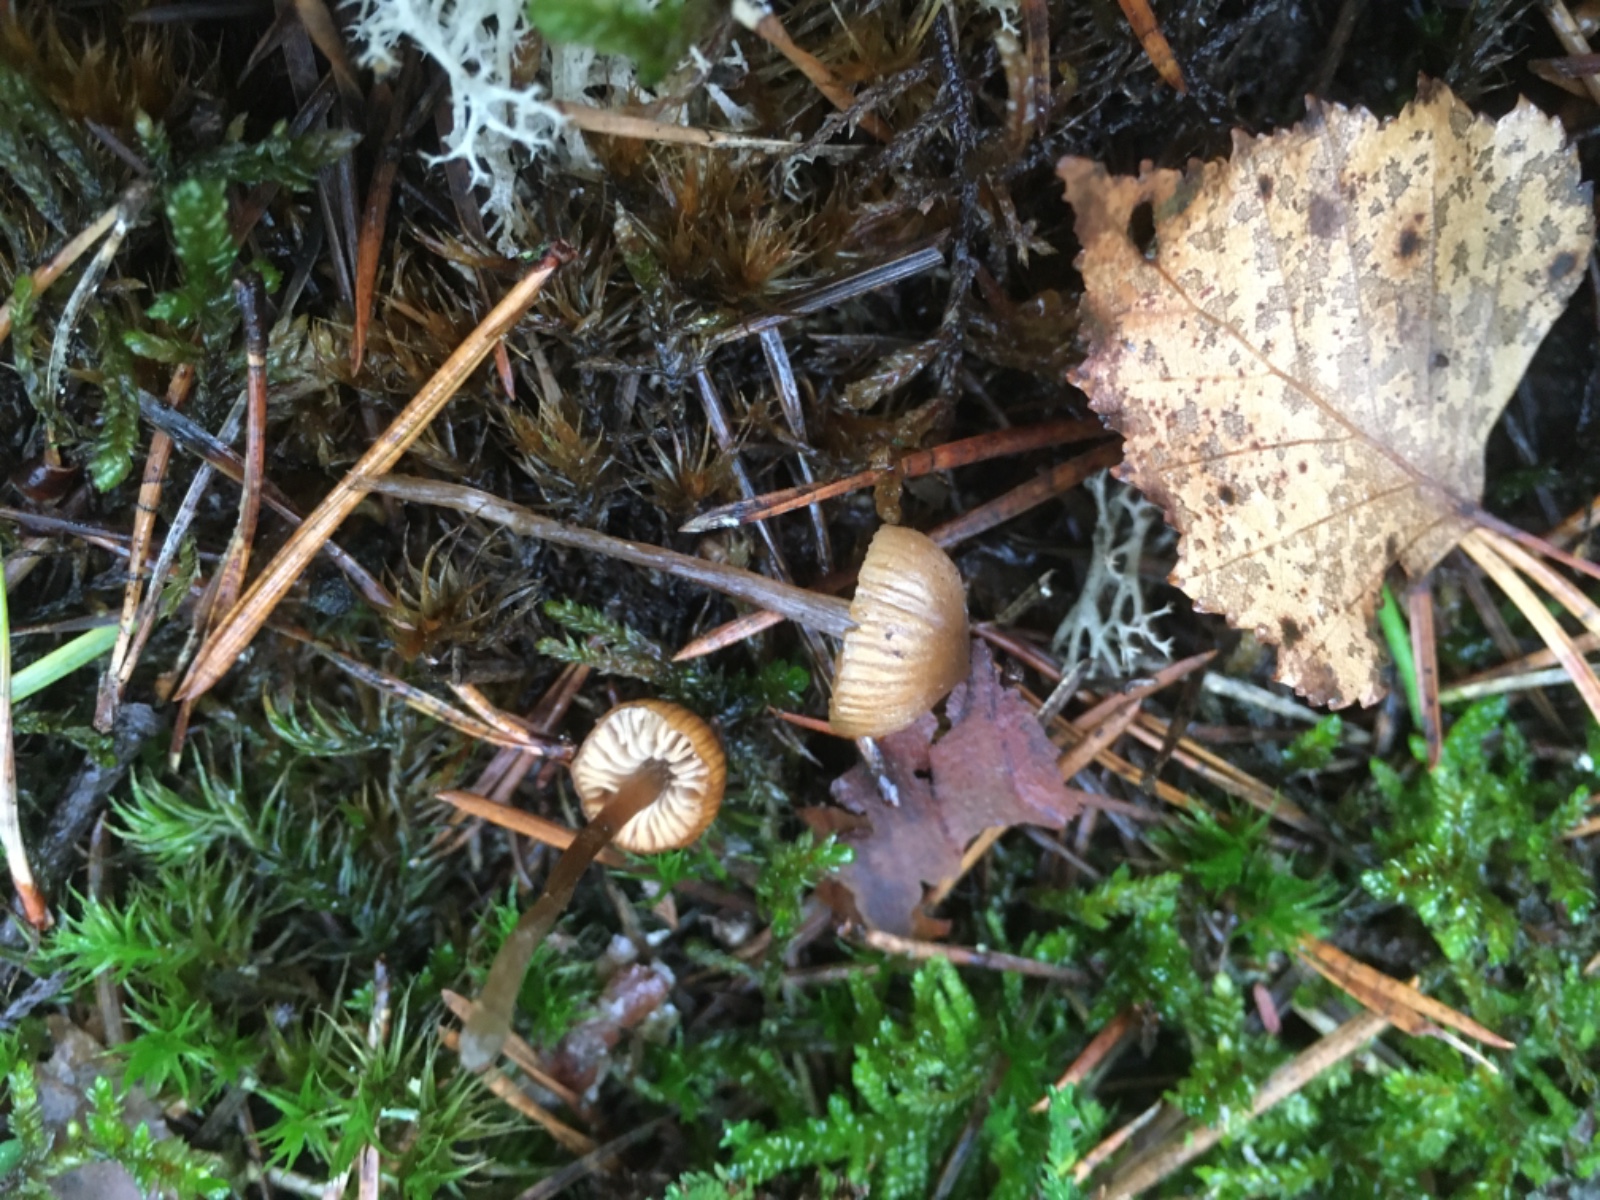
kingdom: Fungi
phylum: Basidiomycota
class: Agaricomycetes
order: Agaricales
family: Lyophyllaceae
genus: Sagaranella
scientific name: Sagaranella tylicolor
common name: kvælstof-gråblad
